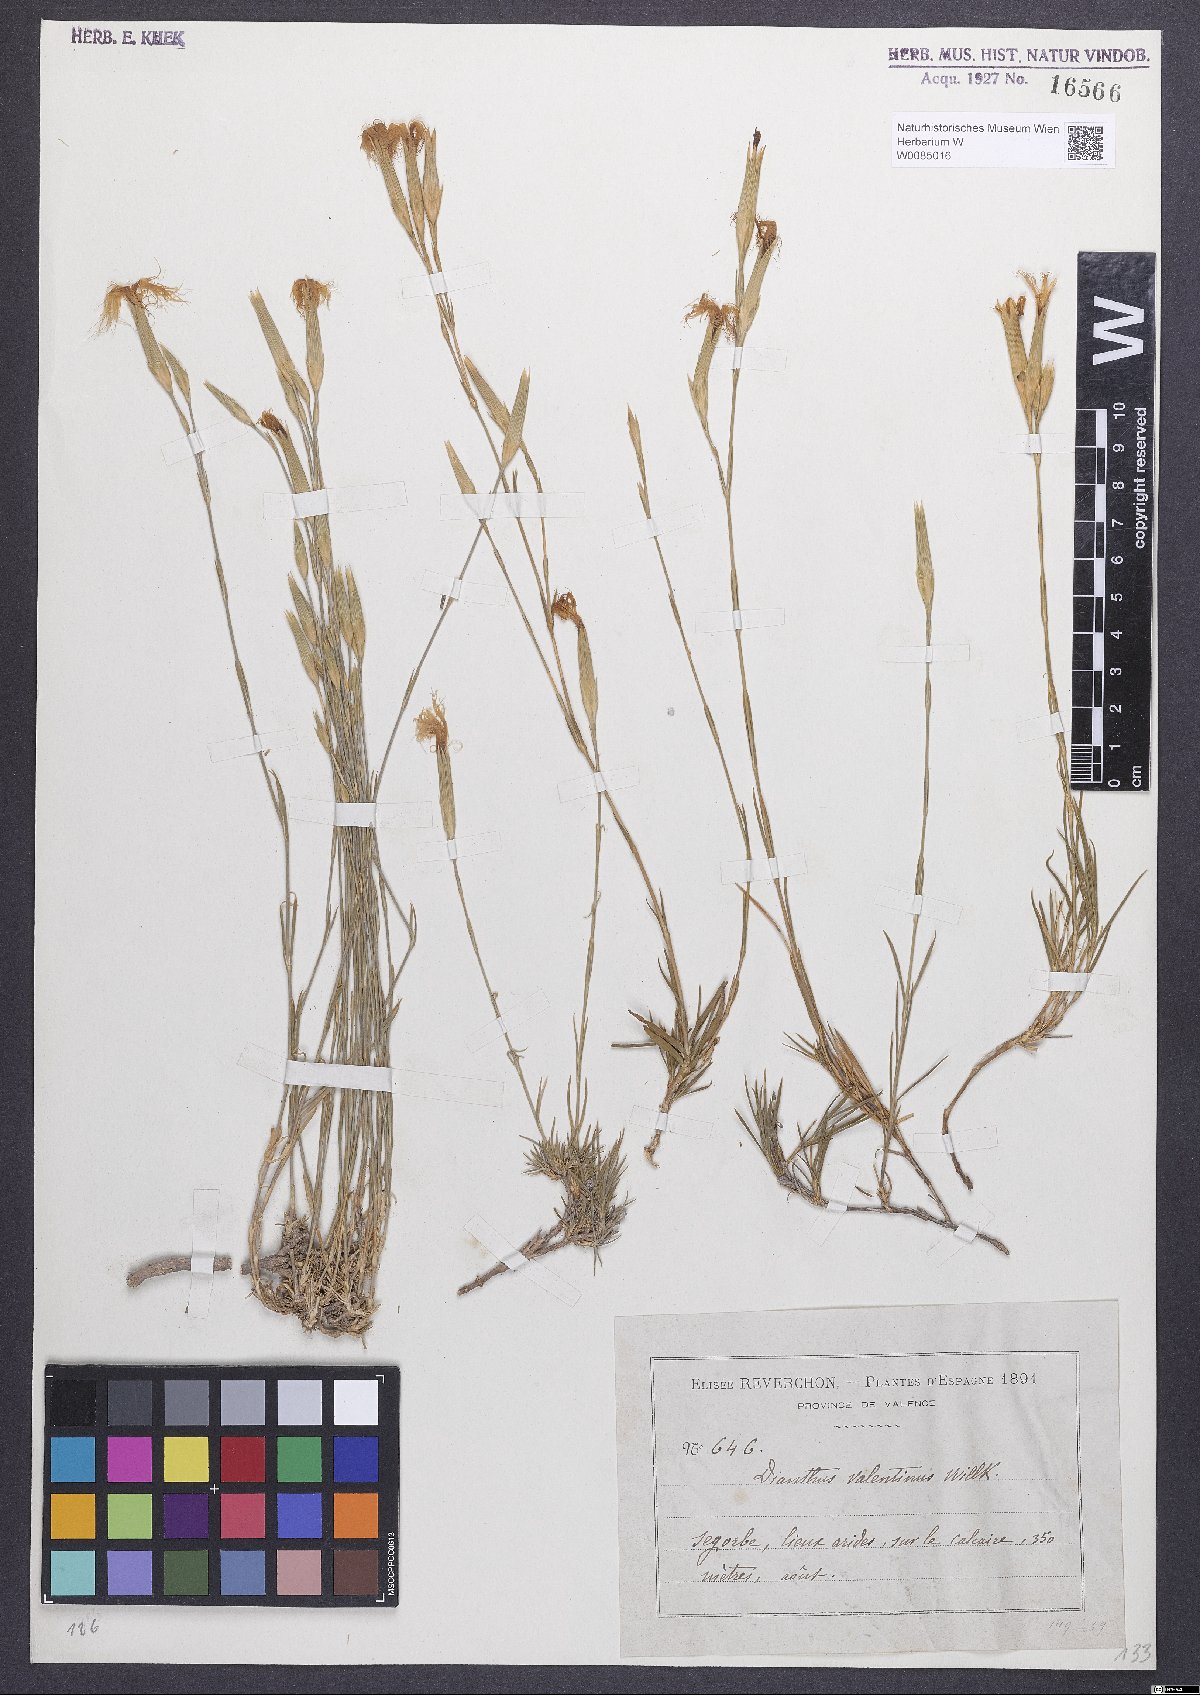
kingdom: Plantae
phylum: Tracheophyta
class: Magnoliopsida
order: Caryophyllales
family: Caryophyllaceae
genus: Dianthus
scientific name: Dianthus broteri
